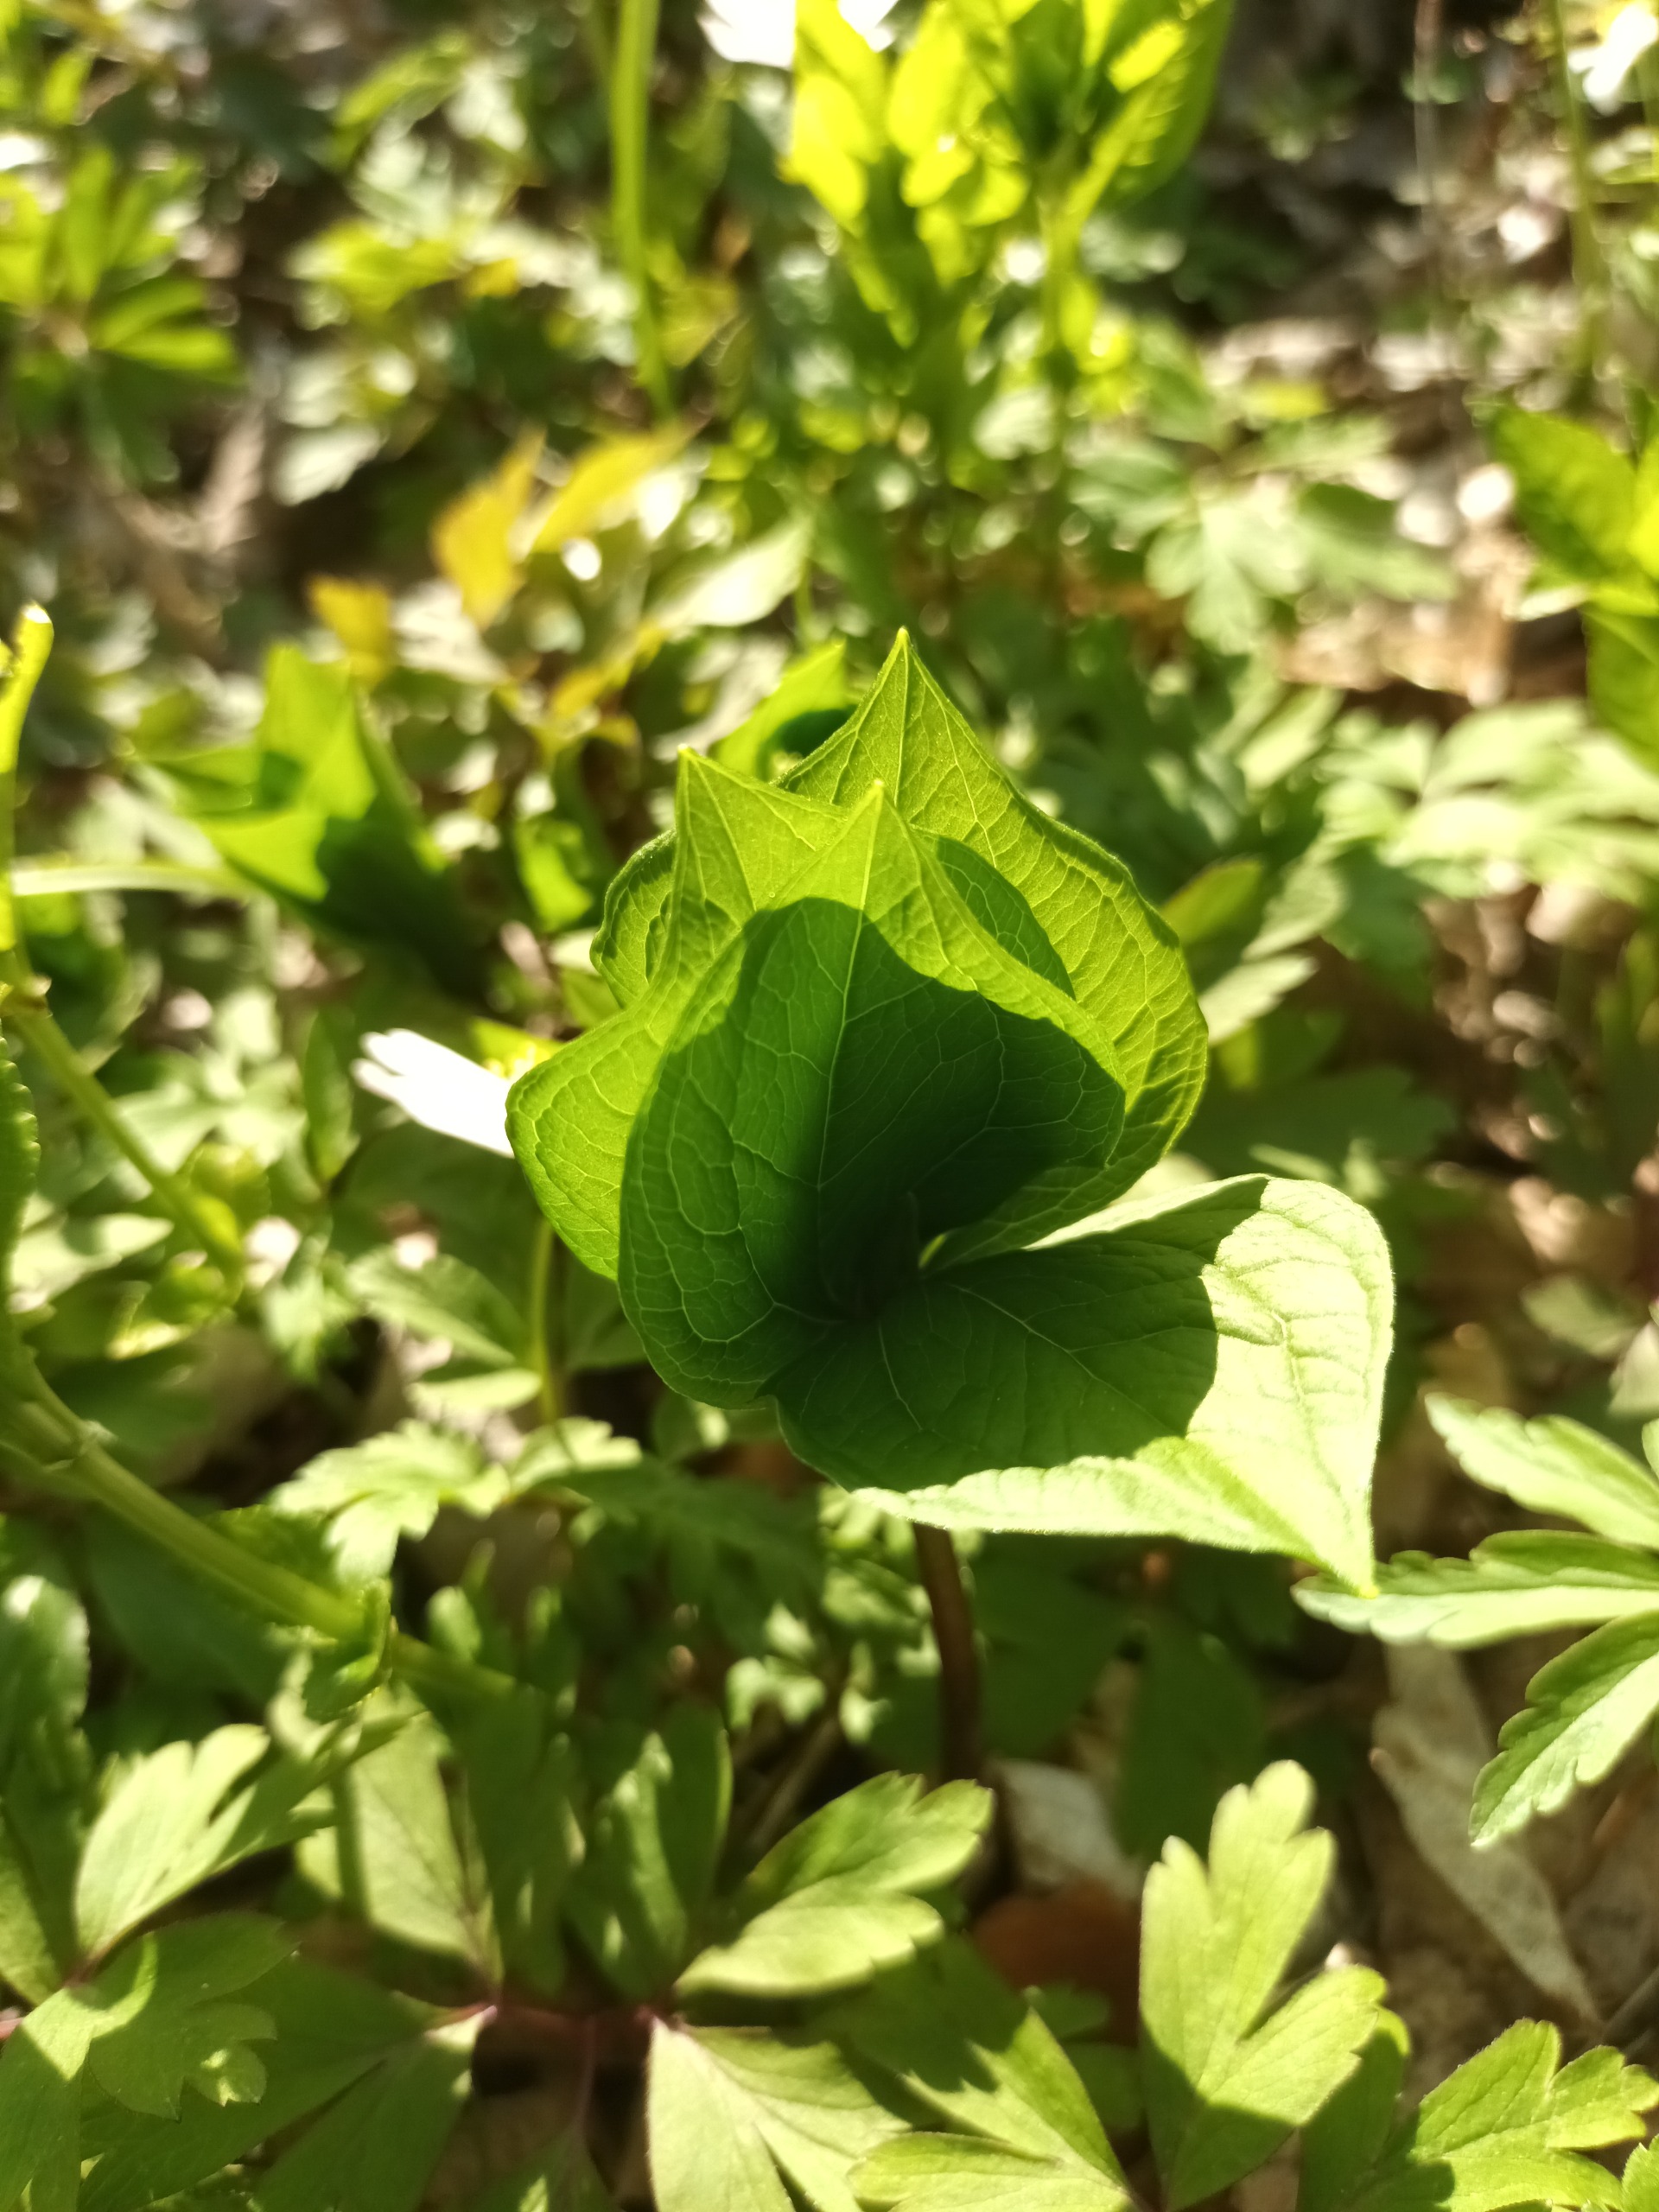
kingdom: Plantae
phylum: Tracheophyta
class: Liliopsida
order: Liliales
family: Melanthiaceae
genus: Paris
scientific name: Paris quadrifolia
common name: Firblad
